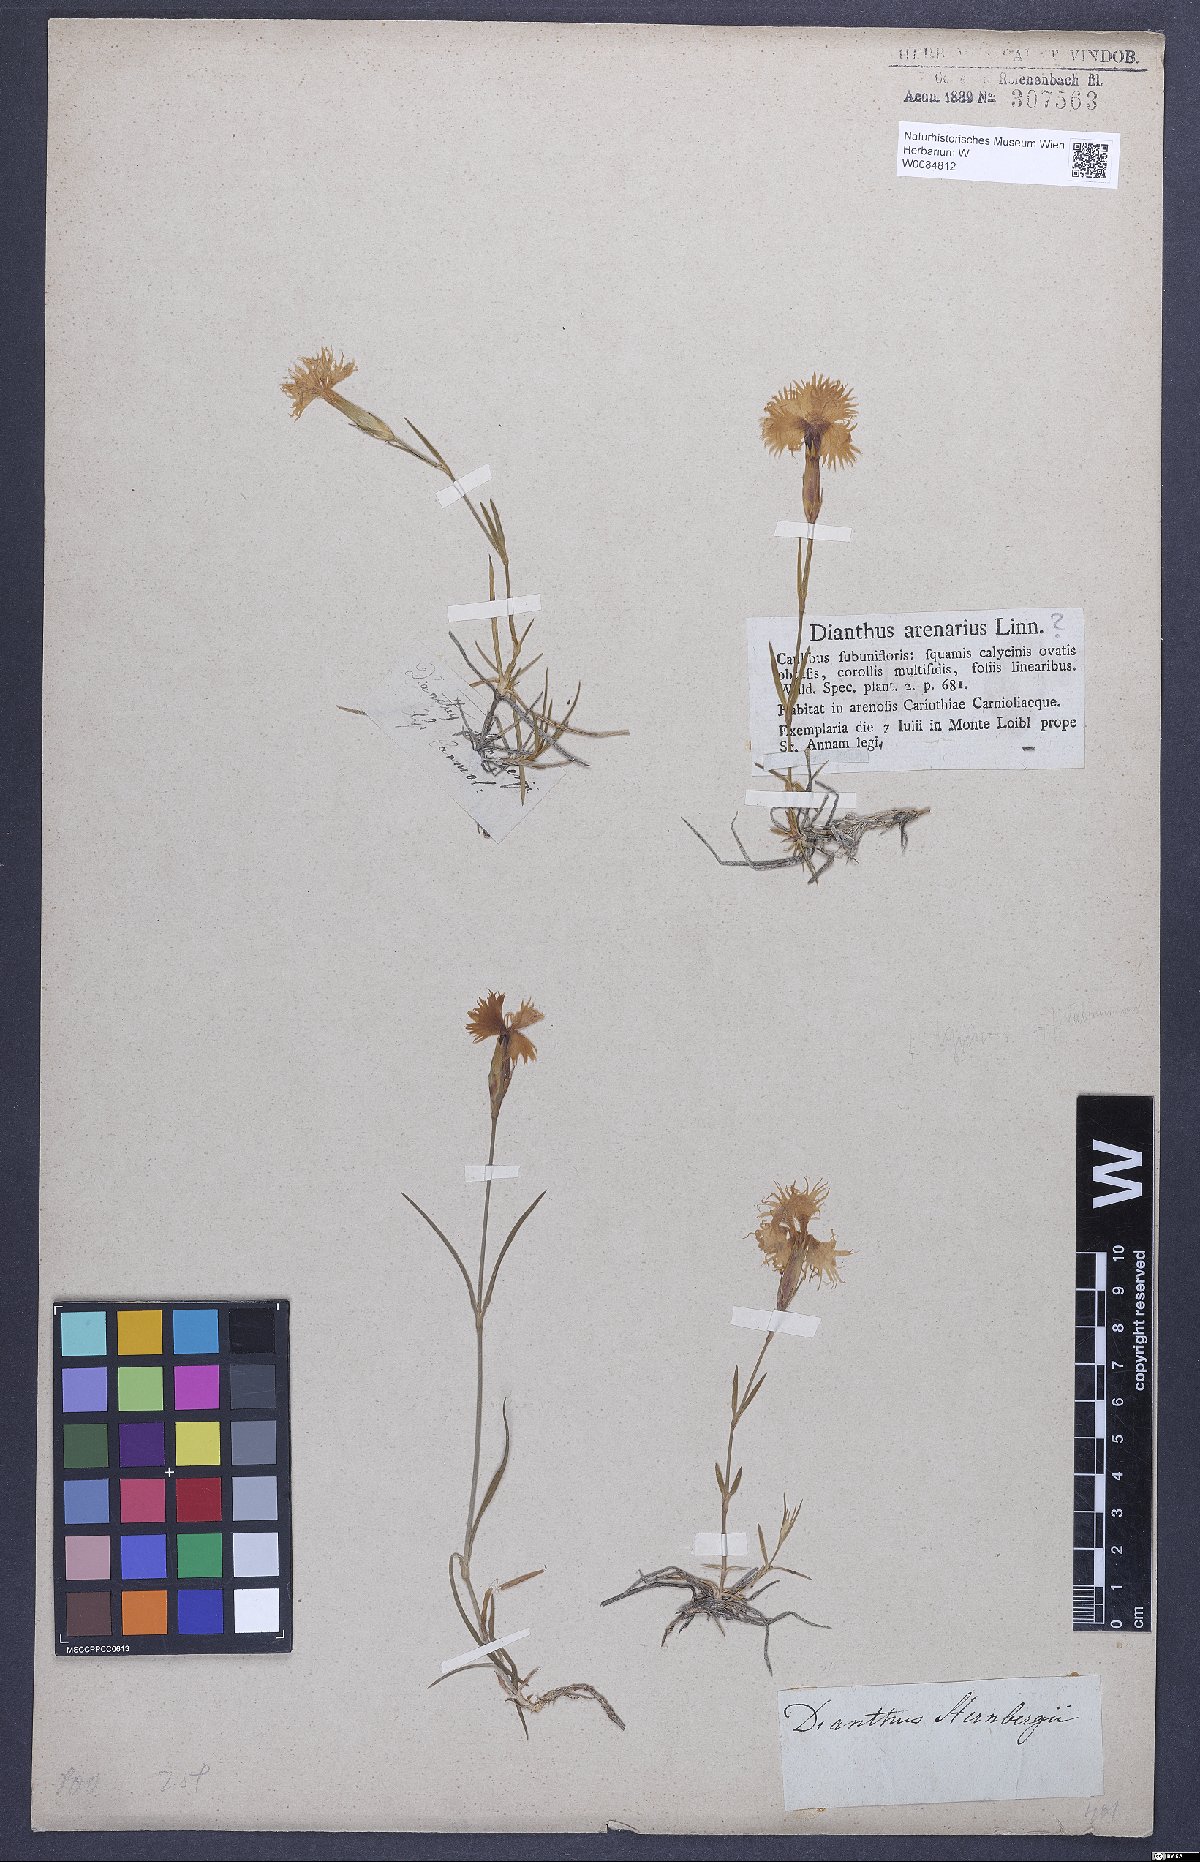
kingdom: Plantae
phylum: Tracheophyta
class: Magnoliopsida
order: Caryophyllales
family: Caryophyllaceae
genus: Dianthus
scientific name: Dianthus monspessulanus
